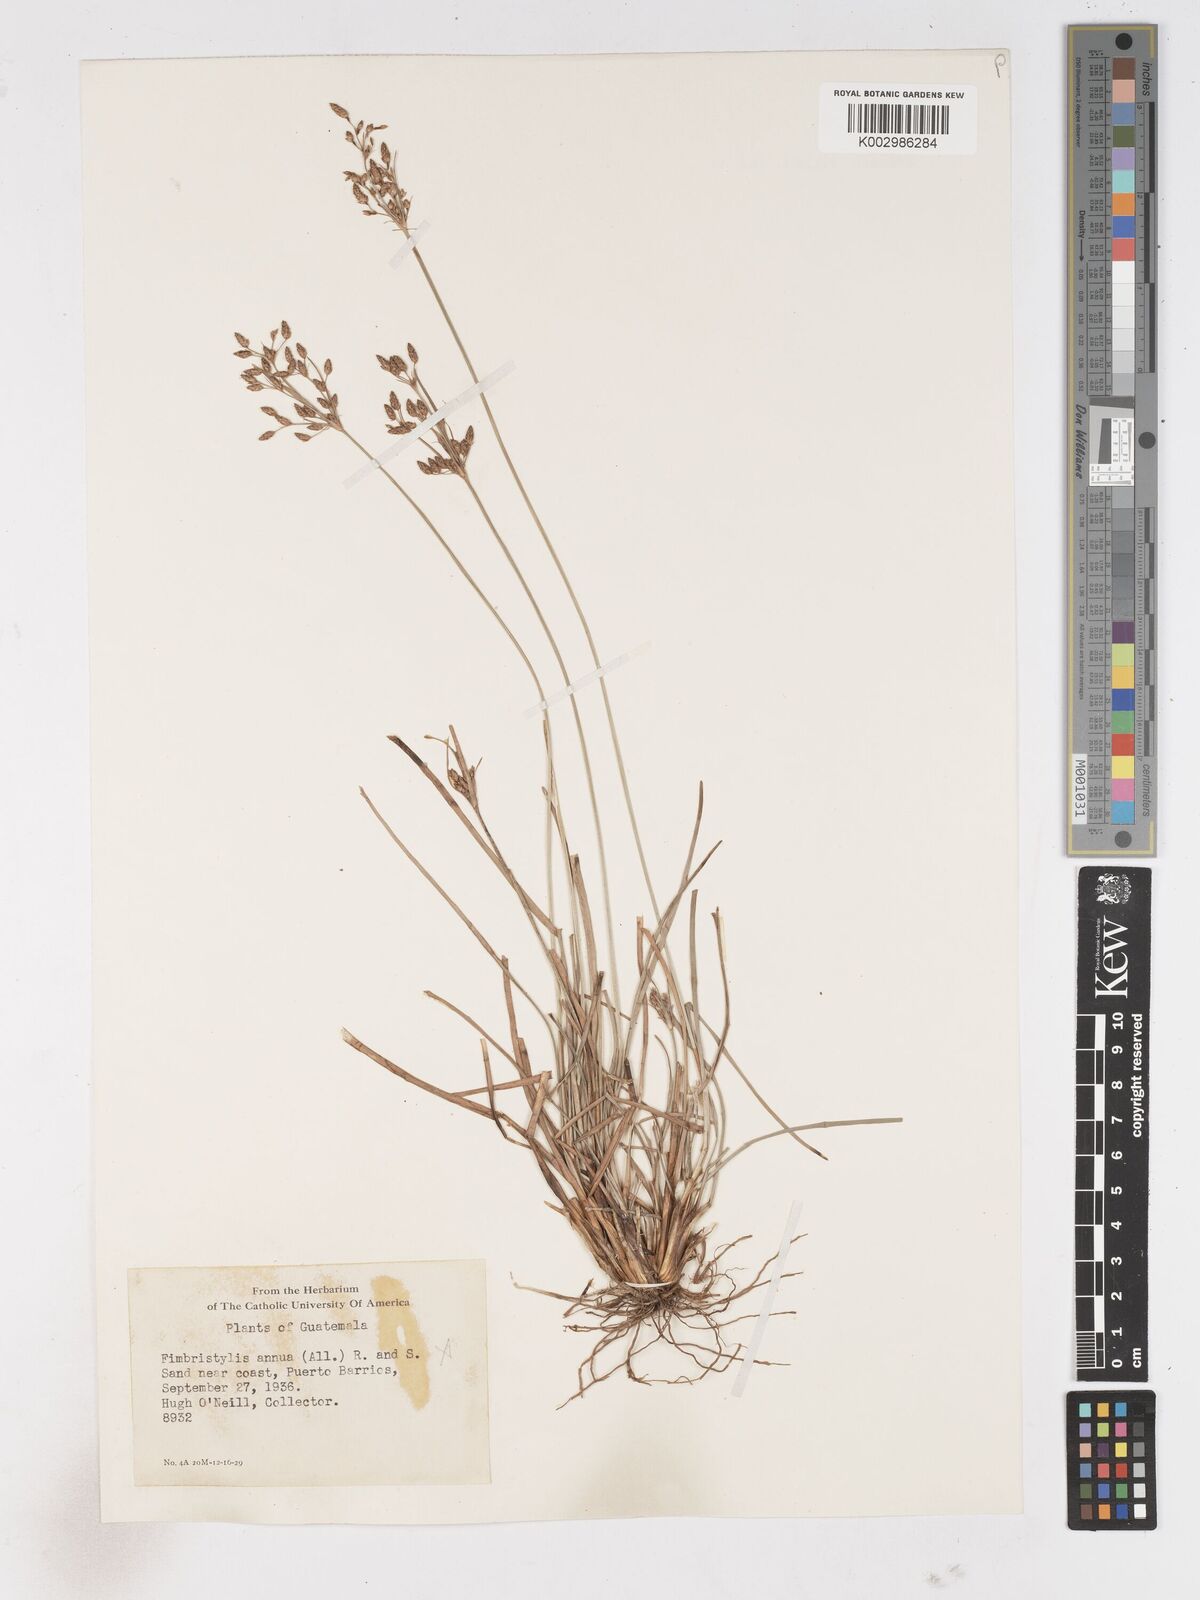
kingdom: Plantae
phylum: Tracheophyta
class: Liliopsida
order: Poales
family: Cyperaceae
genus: Fimbristylis
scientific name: Fimbristylis dichotoma
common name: Forked fimbry
